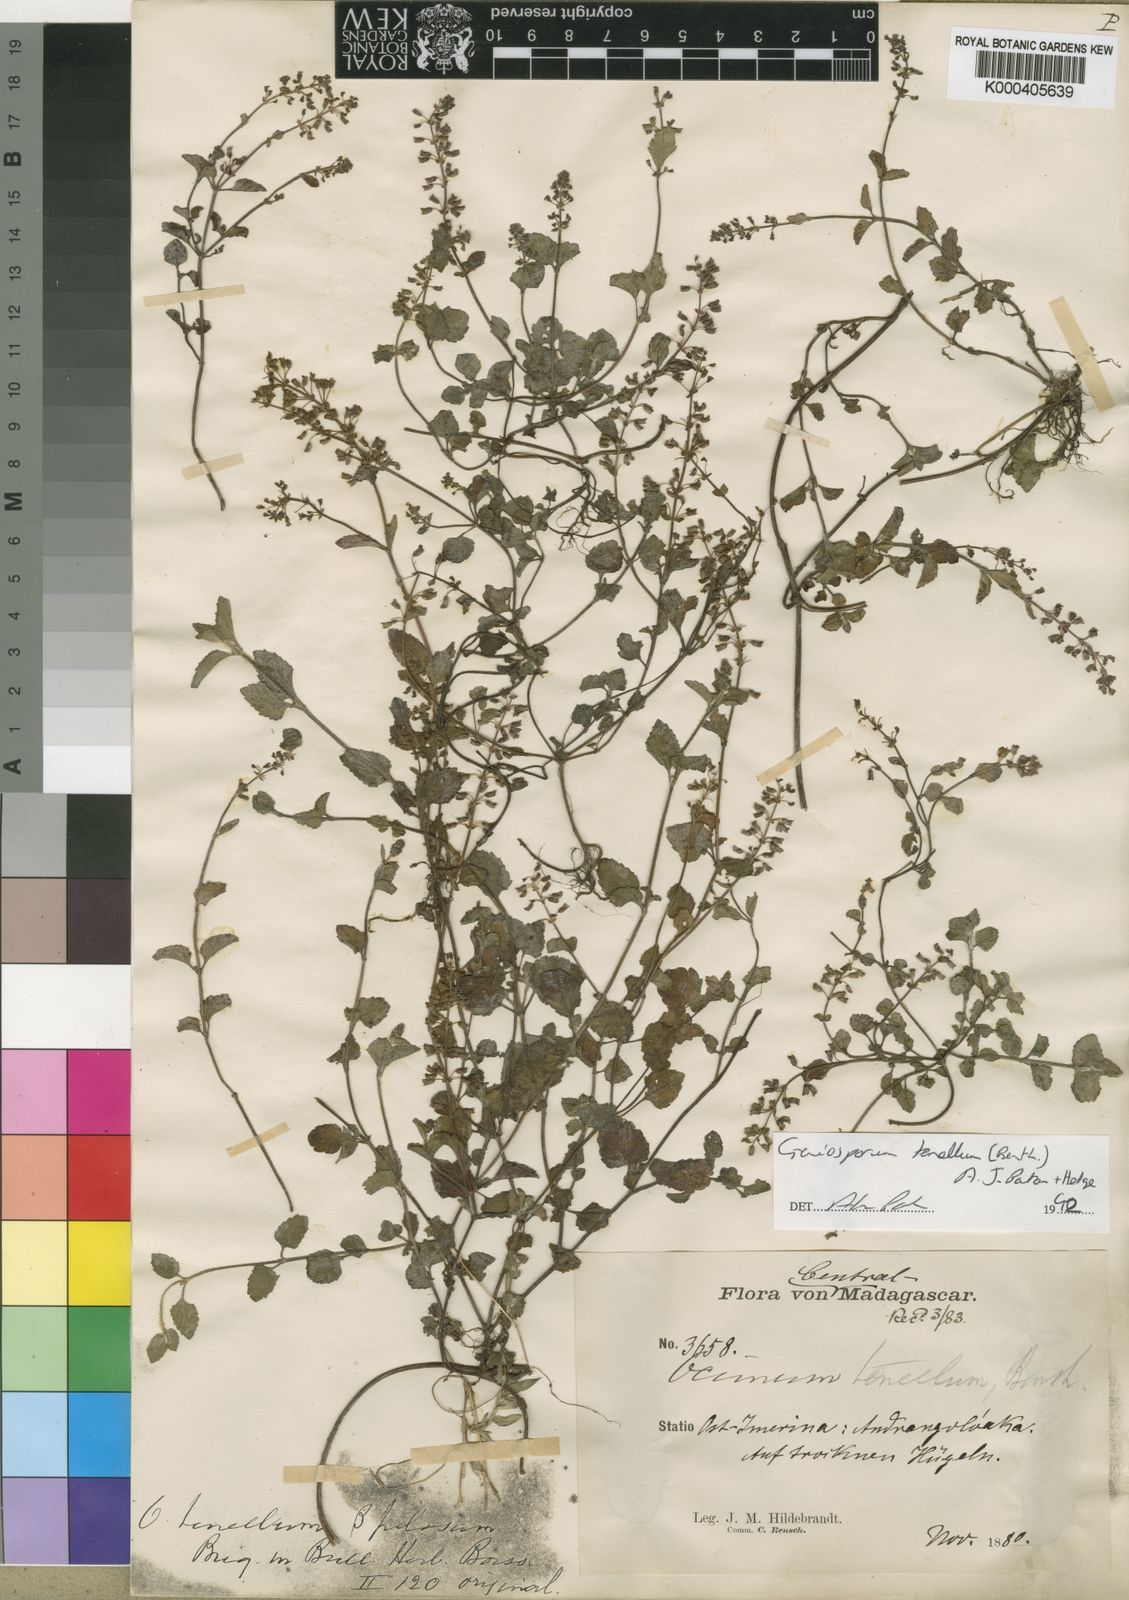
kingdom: Plantae
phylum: Tracheophyta
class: Magnoliopsida
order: Lamiales
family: Lamiaceae
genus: Platostoma
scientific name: Platostoma tenellum
